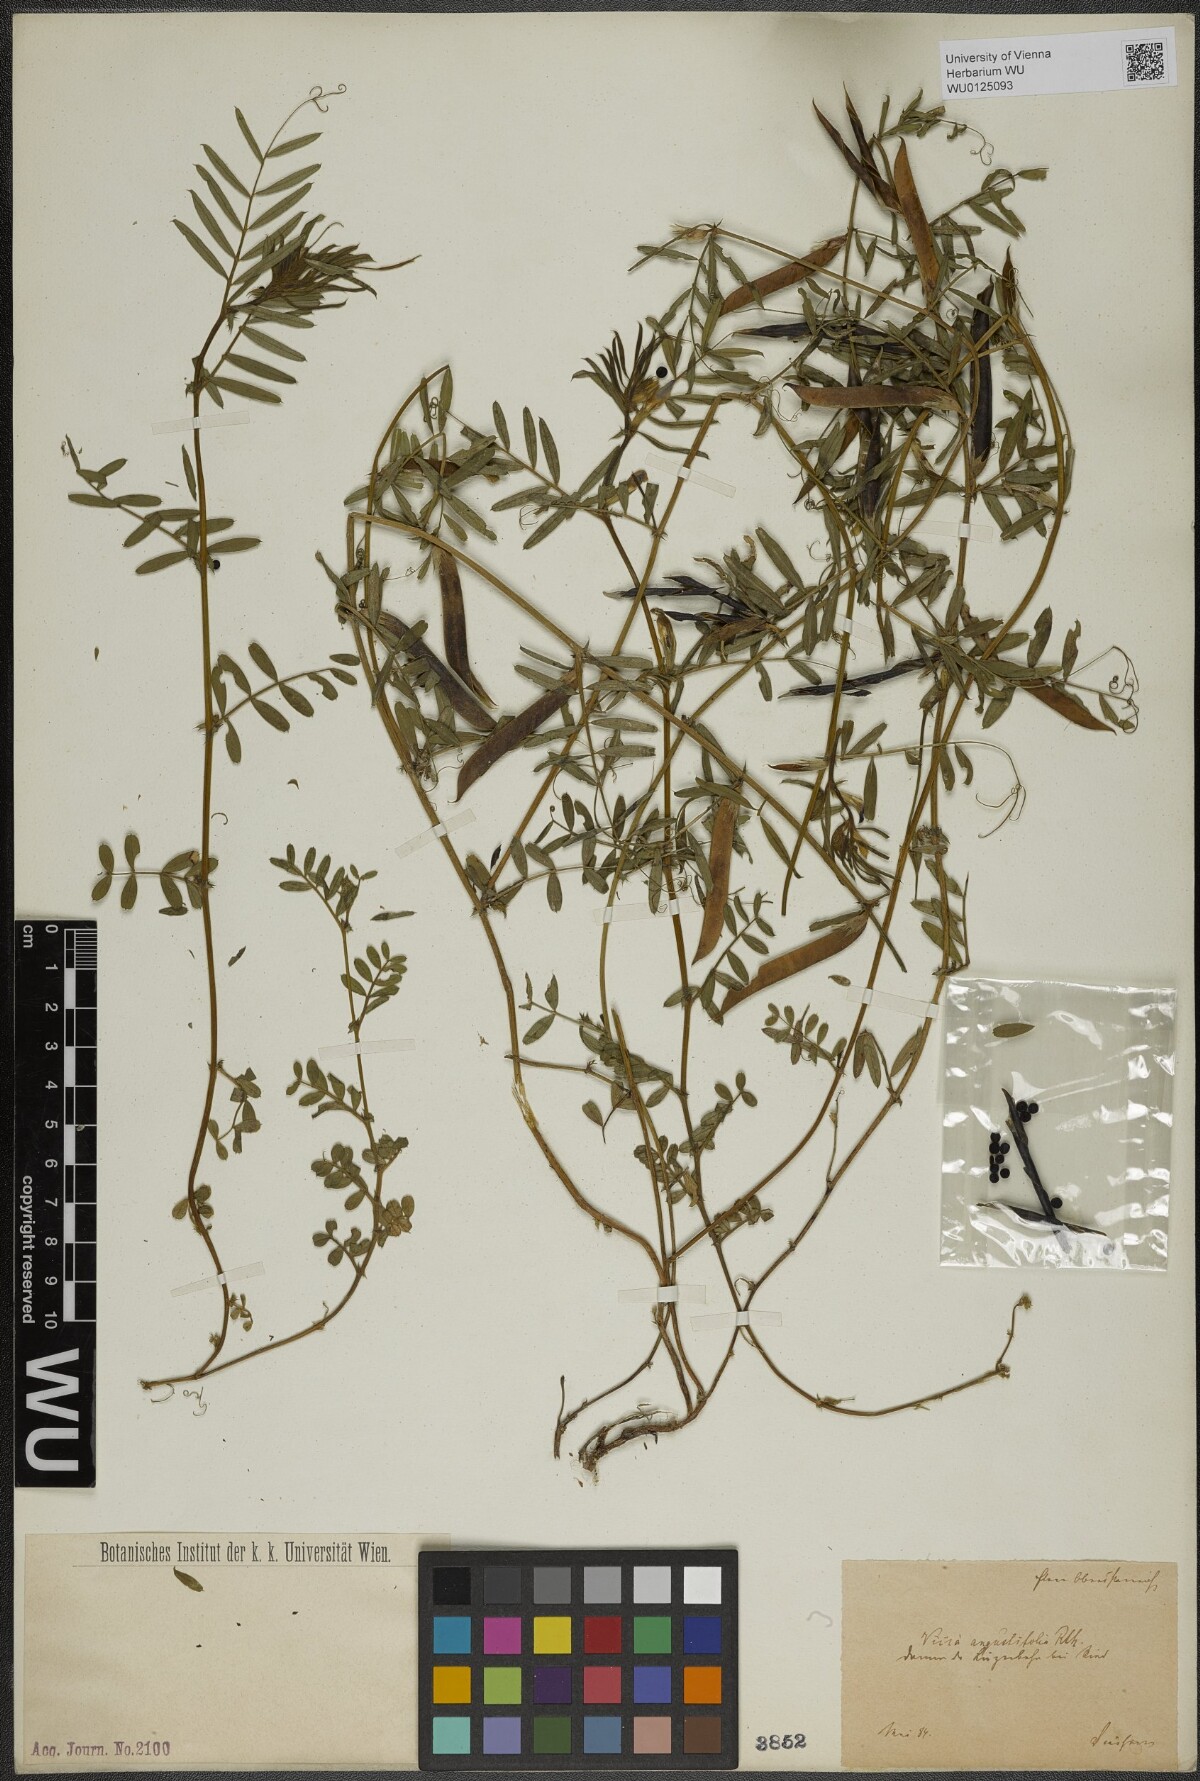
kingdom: Plantae
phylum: Tracheophyta
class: Magnoliopsida
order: Fabales
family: Fabaceae
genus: Vicia
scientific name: Vicia sativa
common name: Garden vetch
